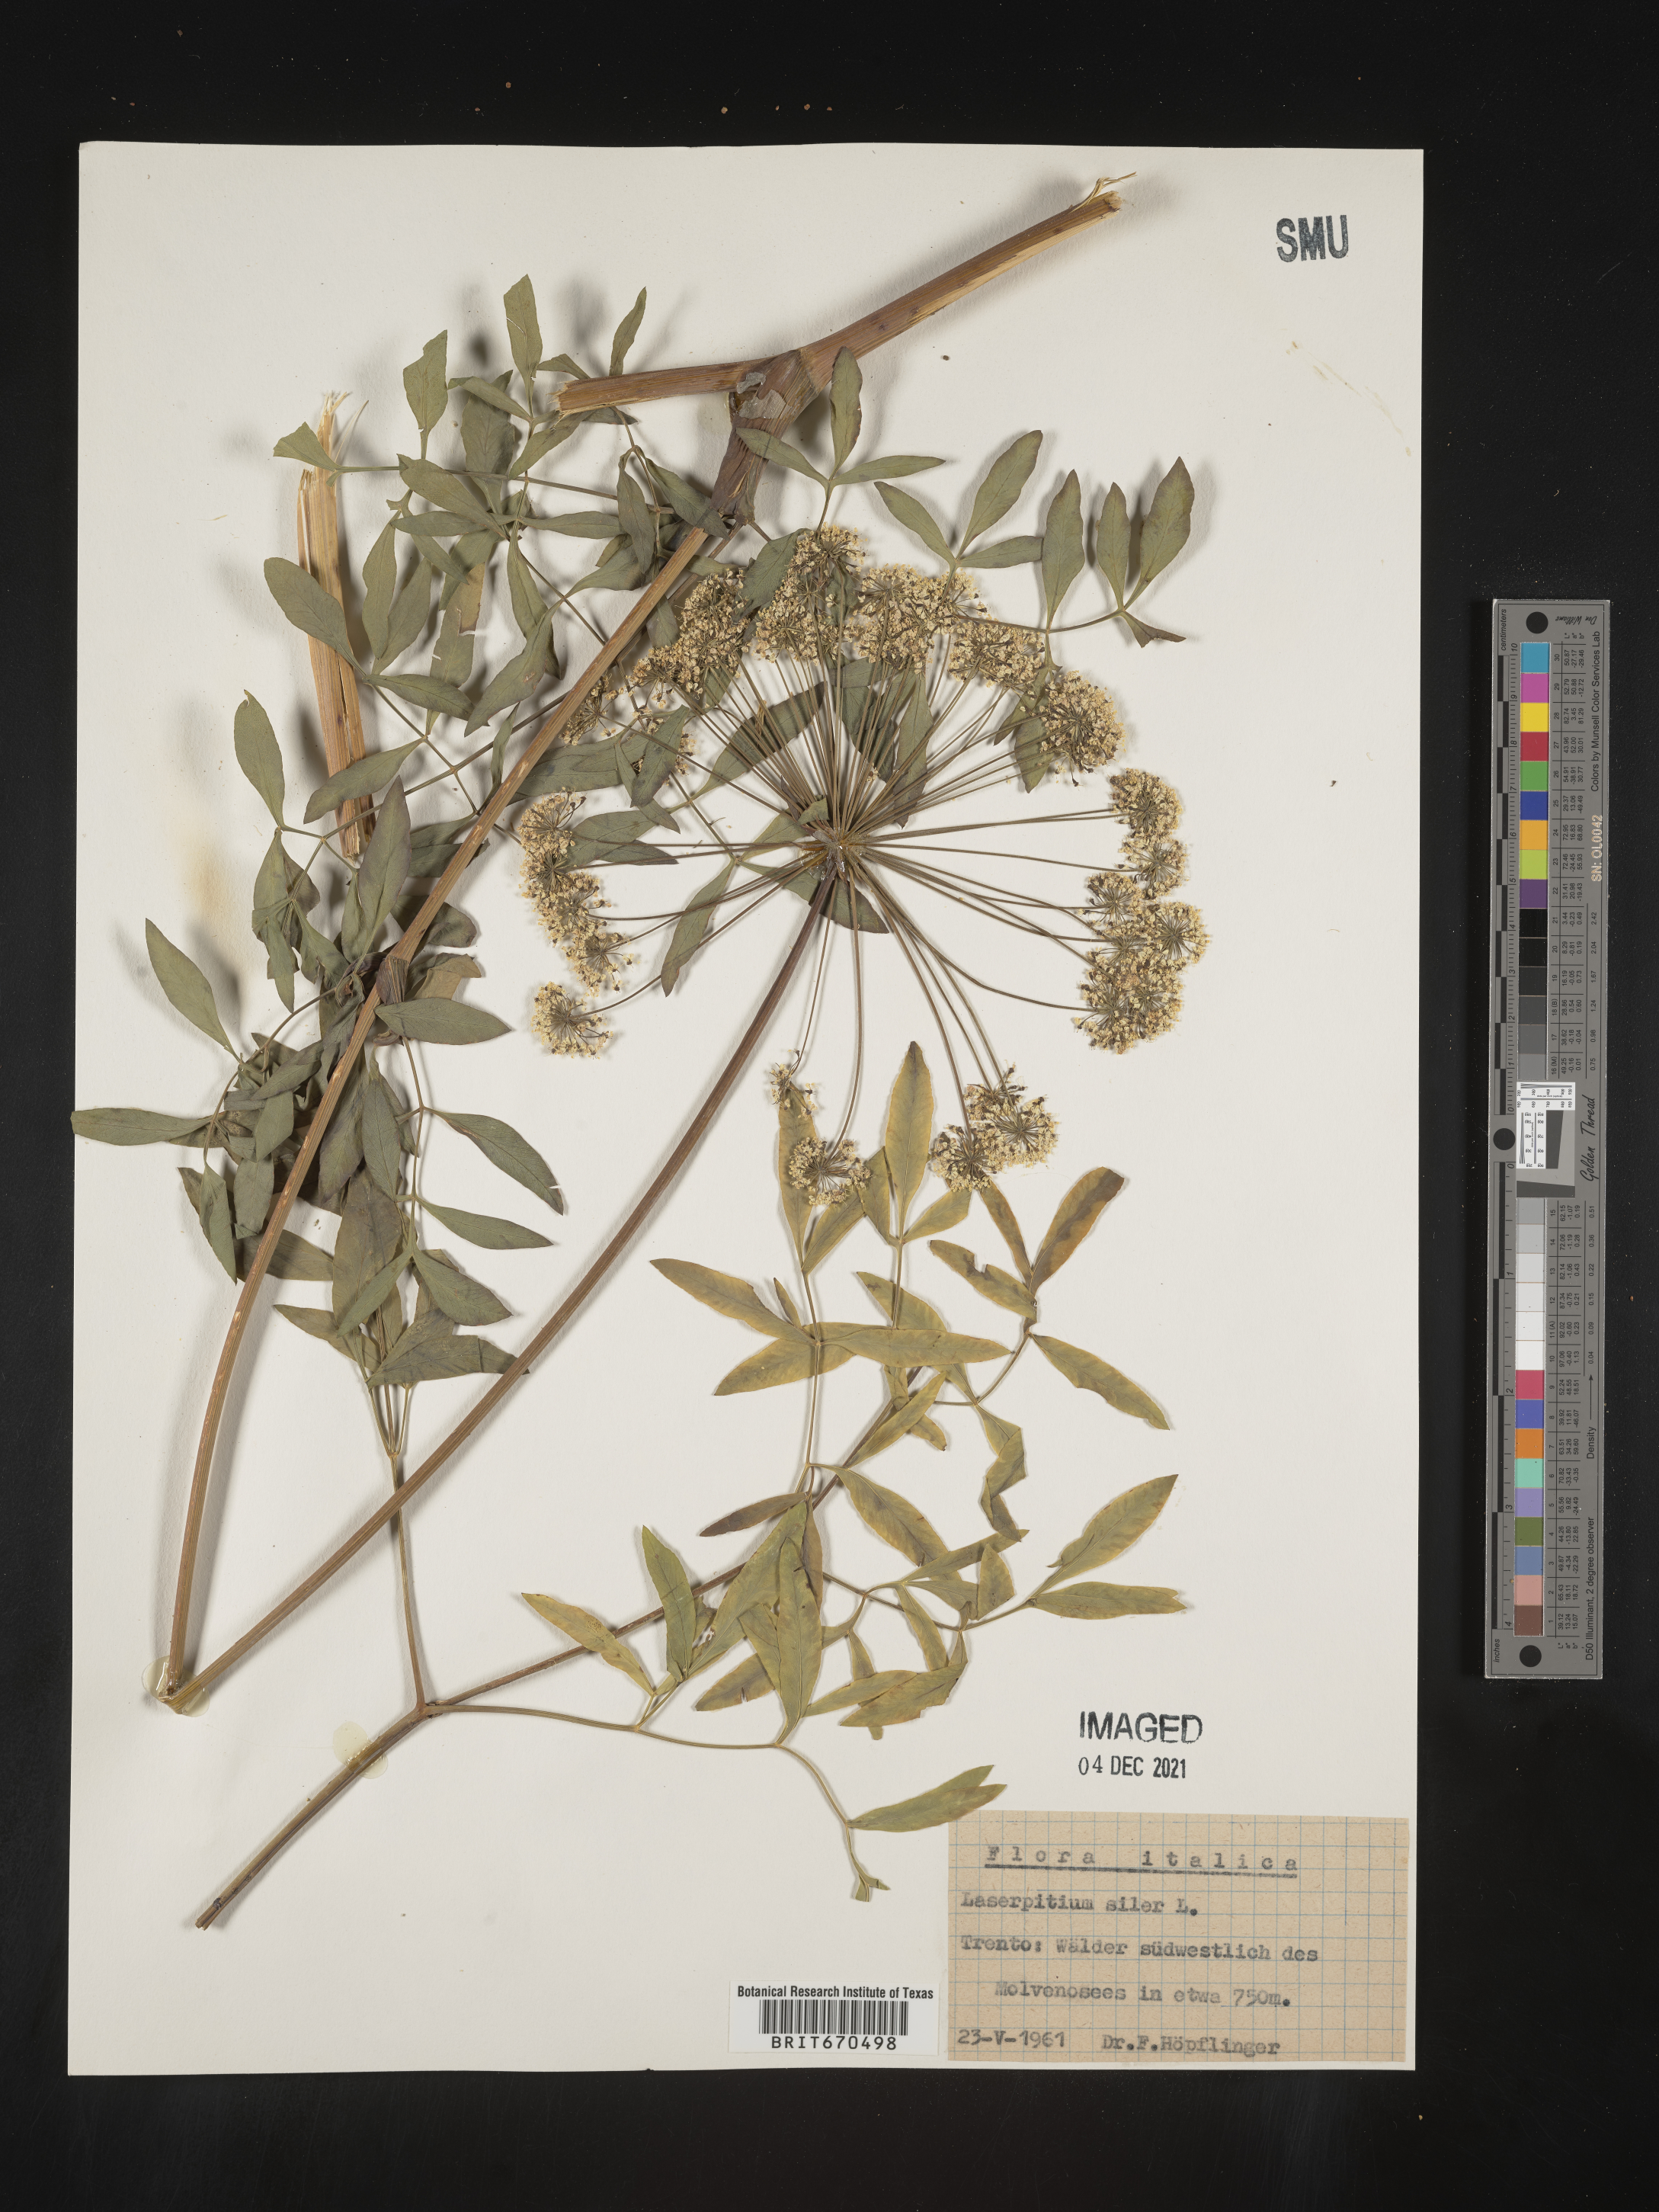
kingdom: Plantae
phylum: Tracheophyta
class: Magnoliopsida
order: Apiales
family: Apiaceae
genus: Laserpitium
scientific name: Laserpitium
